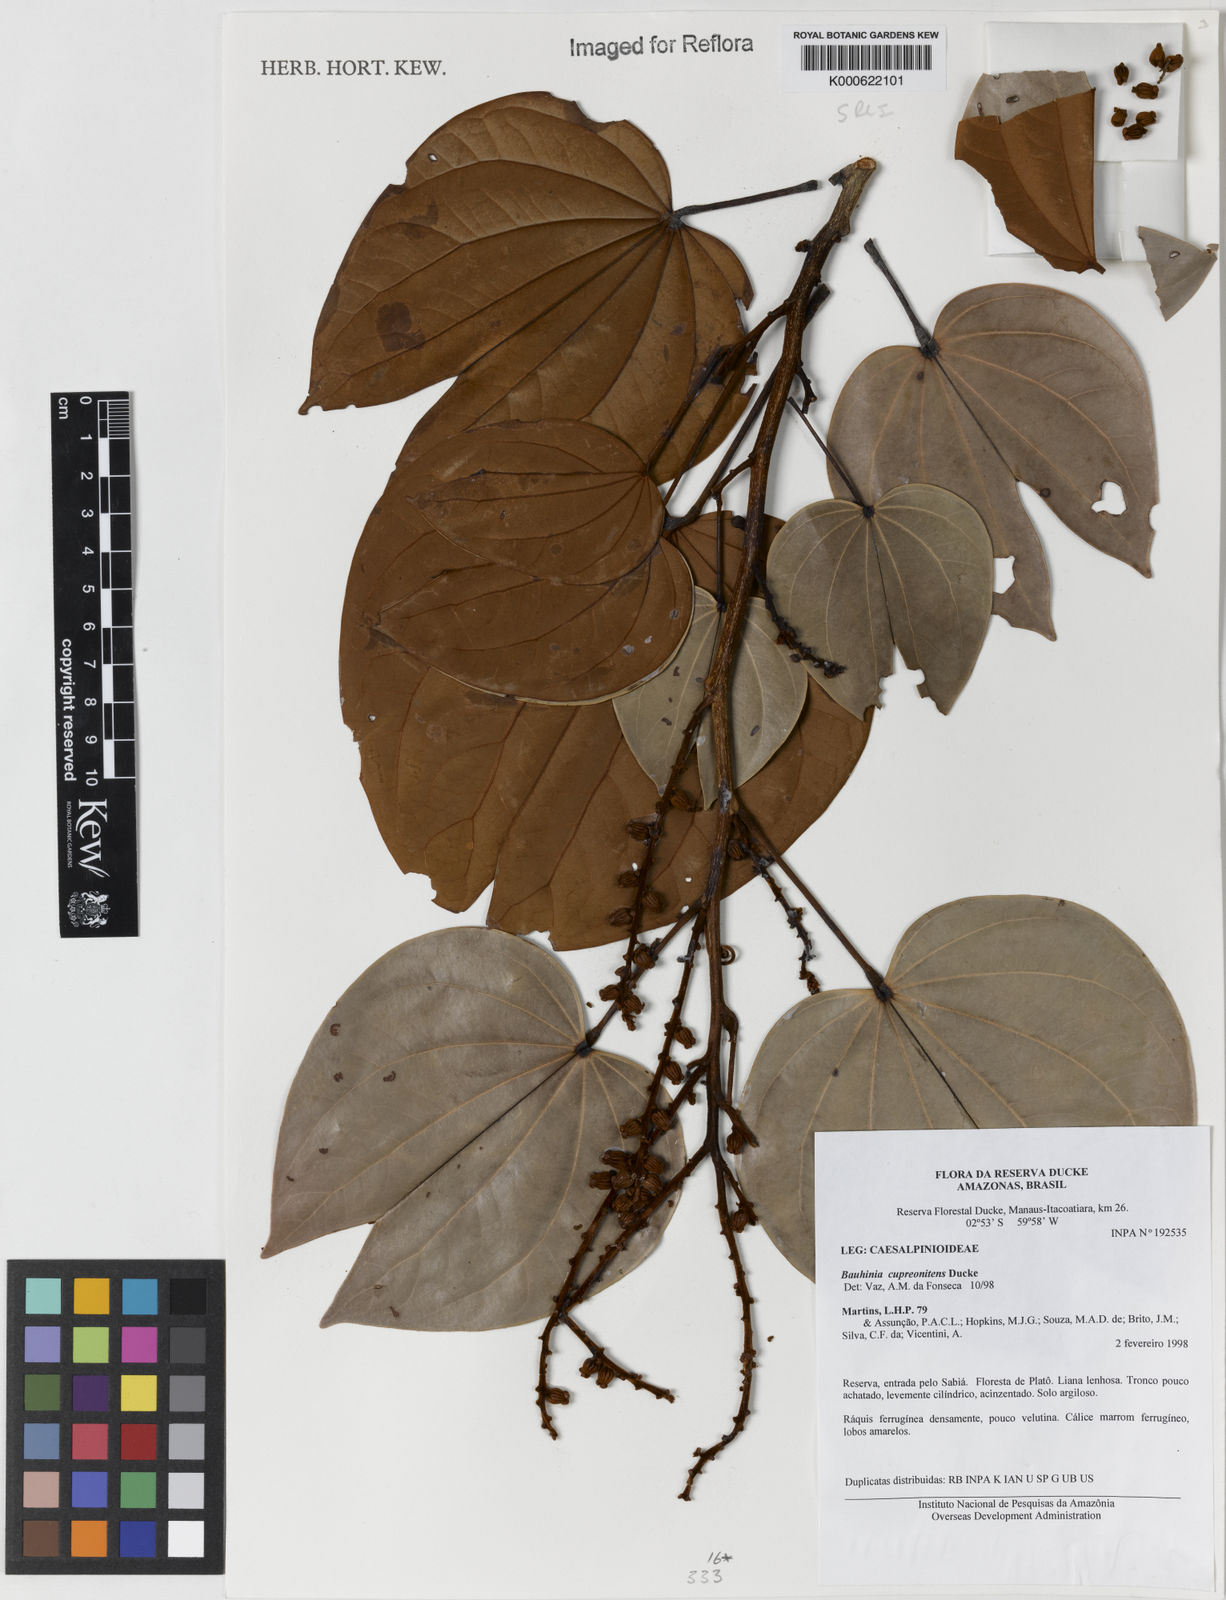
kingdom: Plantae
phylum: Tracheophyta
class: Magnoliopsida
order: Fabales
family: Fabaceae
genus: Schnella
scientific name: Schnella cupreonitens
